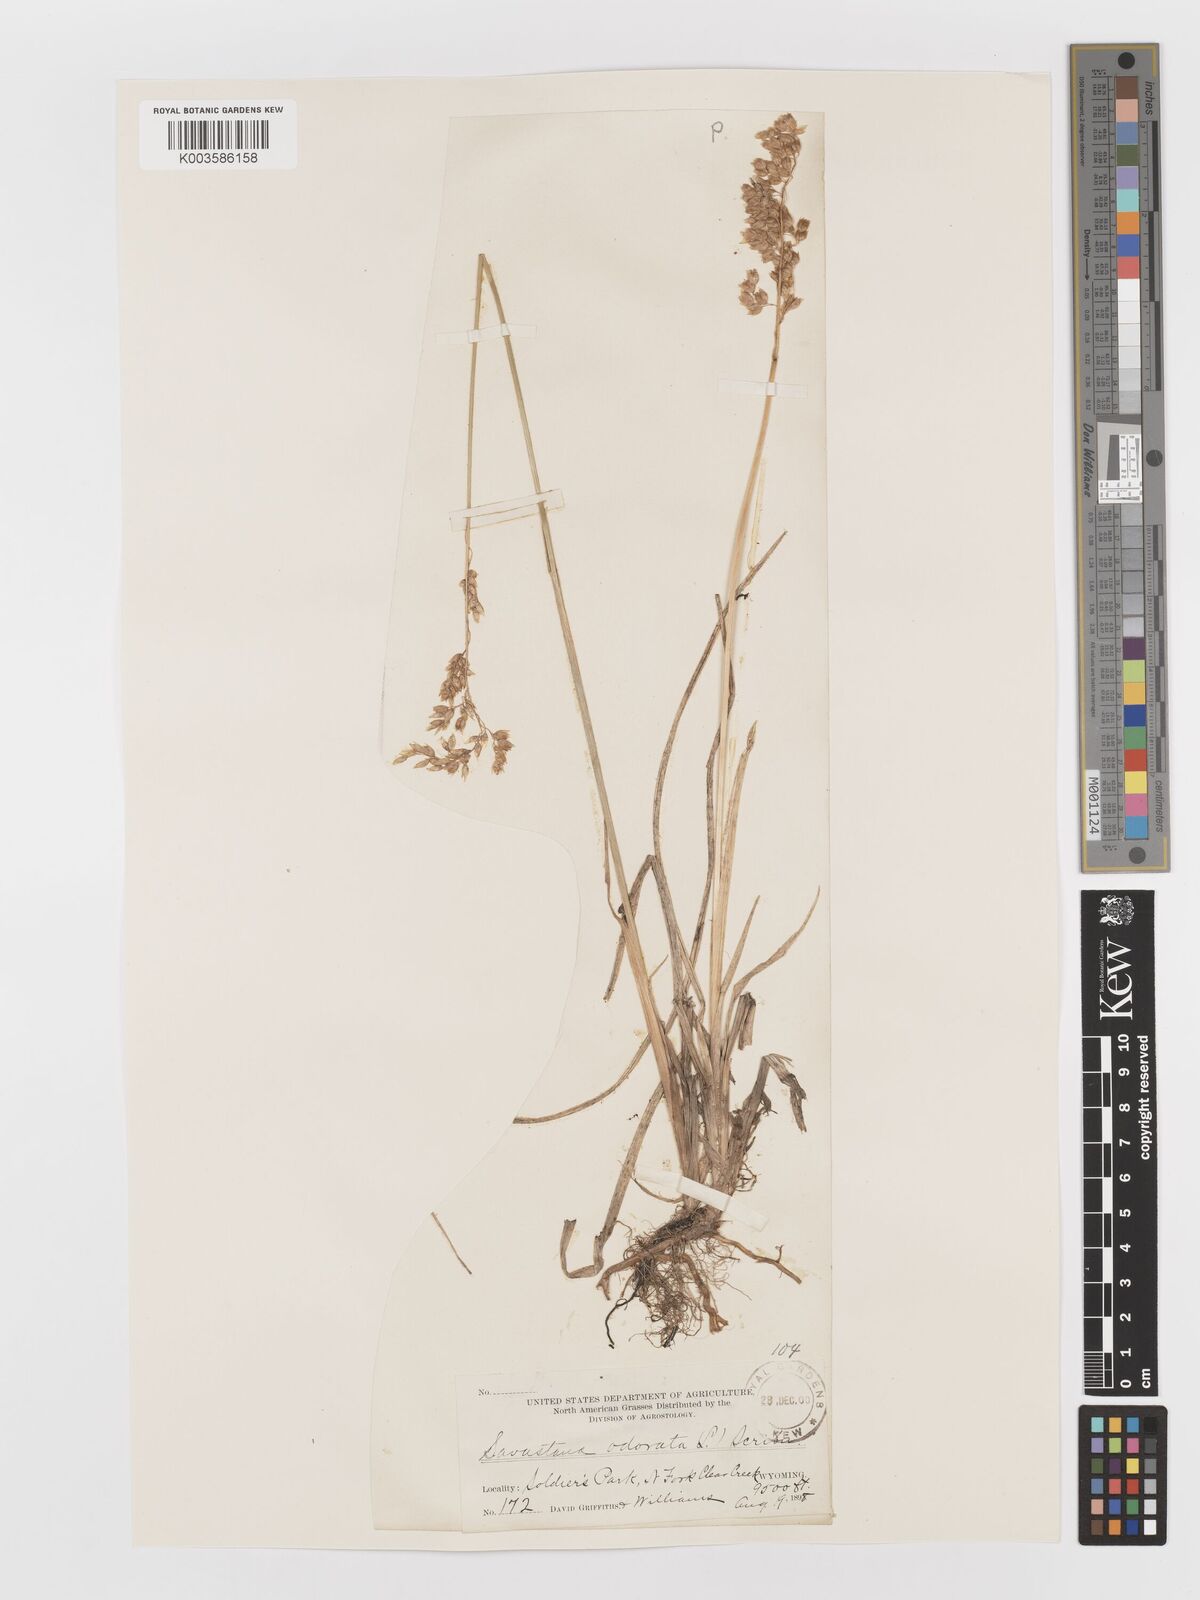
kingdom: Plantae
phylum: Tracheophyta
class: Liliopsida
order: Poales
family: Poaceae
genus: Anthoxanthum
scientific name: Anthoxanthum nitens
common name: Holy grass
